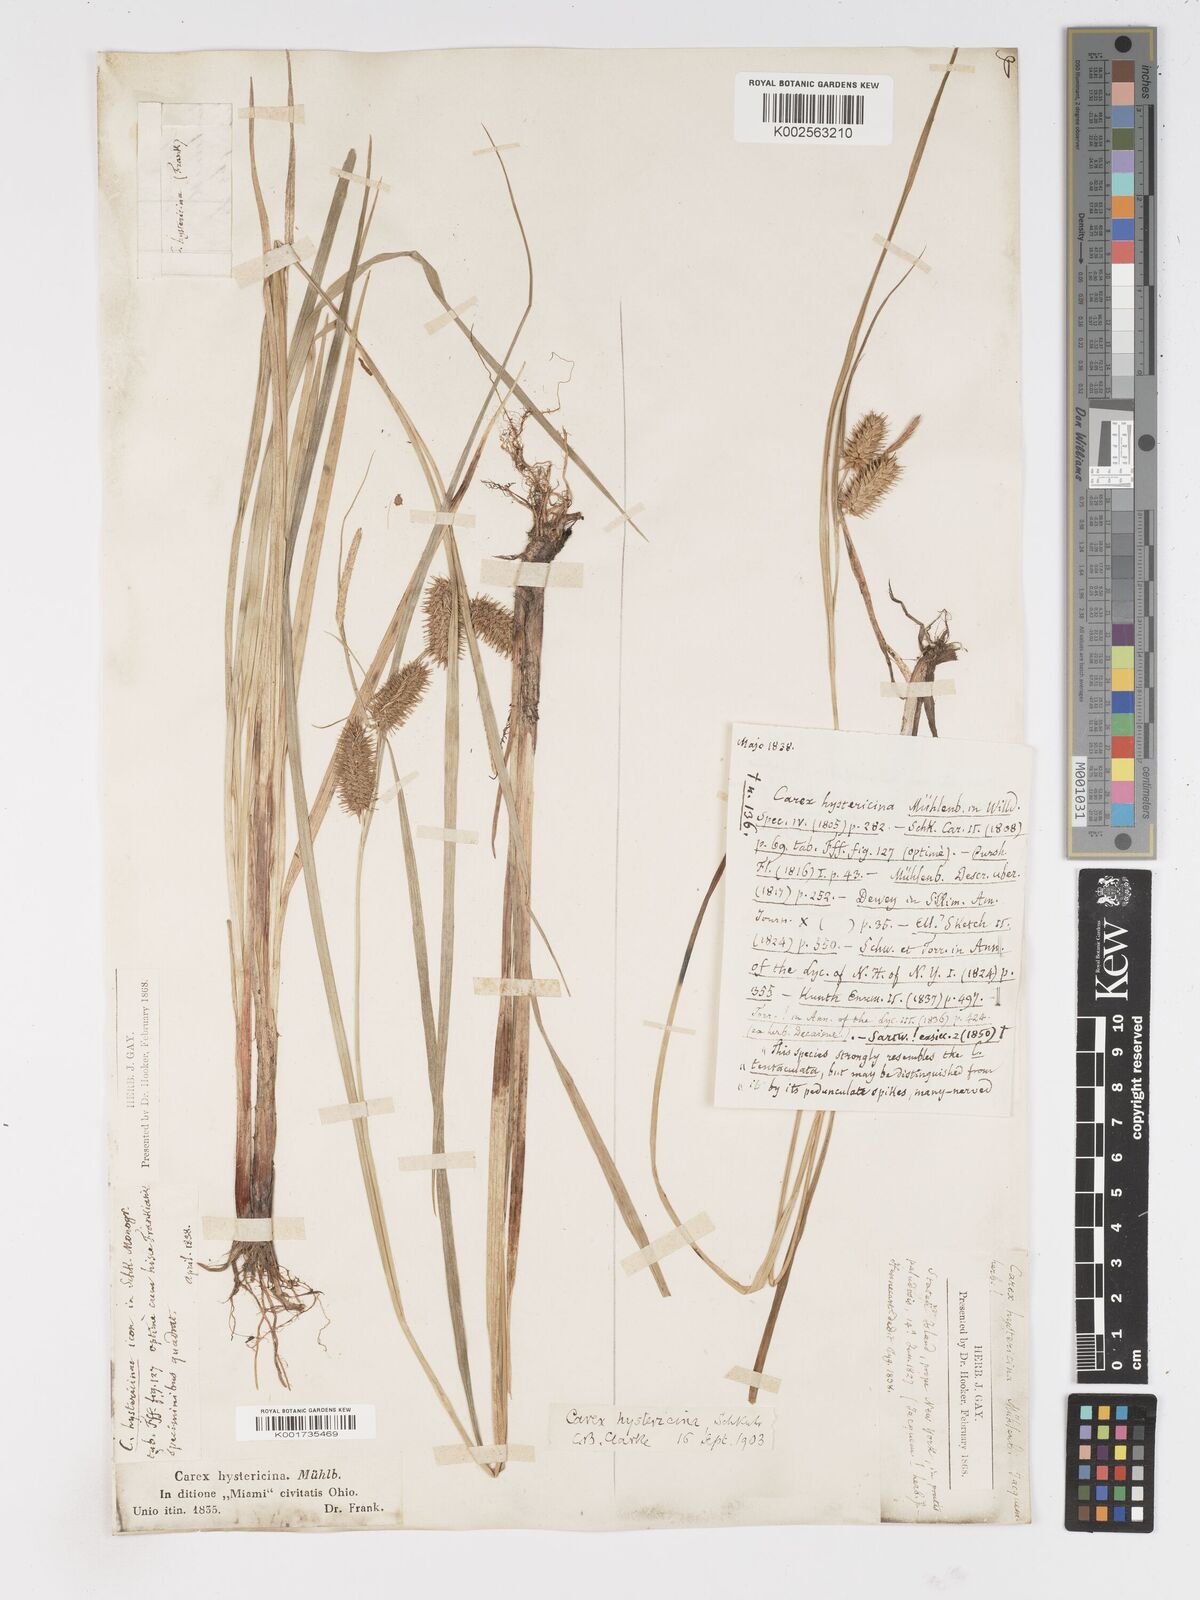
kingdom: Plantae
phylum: Tracheophyta
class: Liliopsida
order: Poales
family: Cyperaceae
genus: Carex
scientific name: Carex hystericina
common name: Bottlebrush sedge
